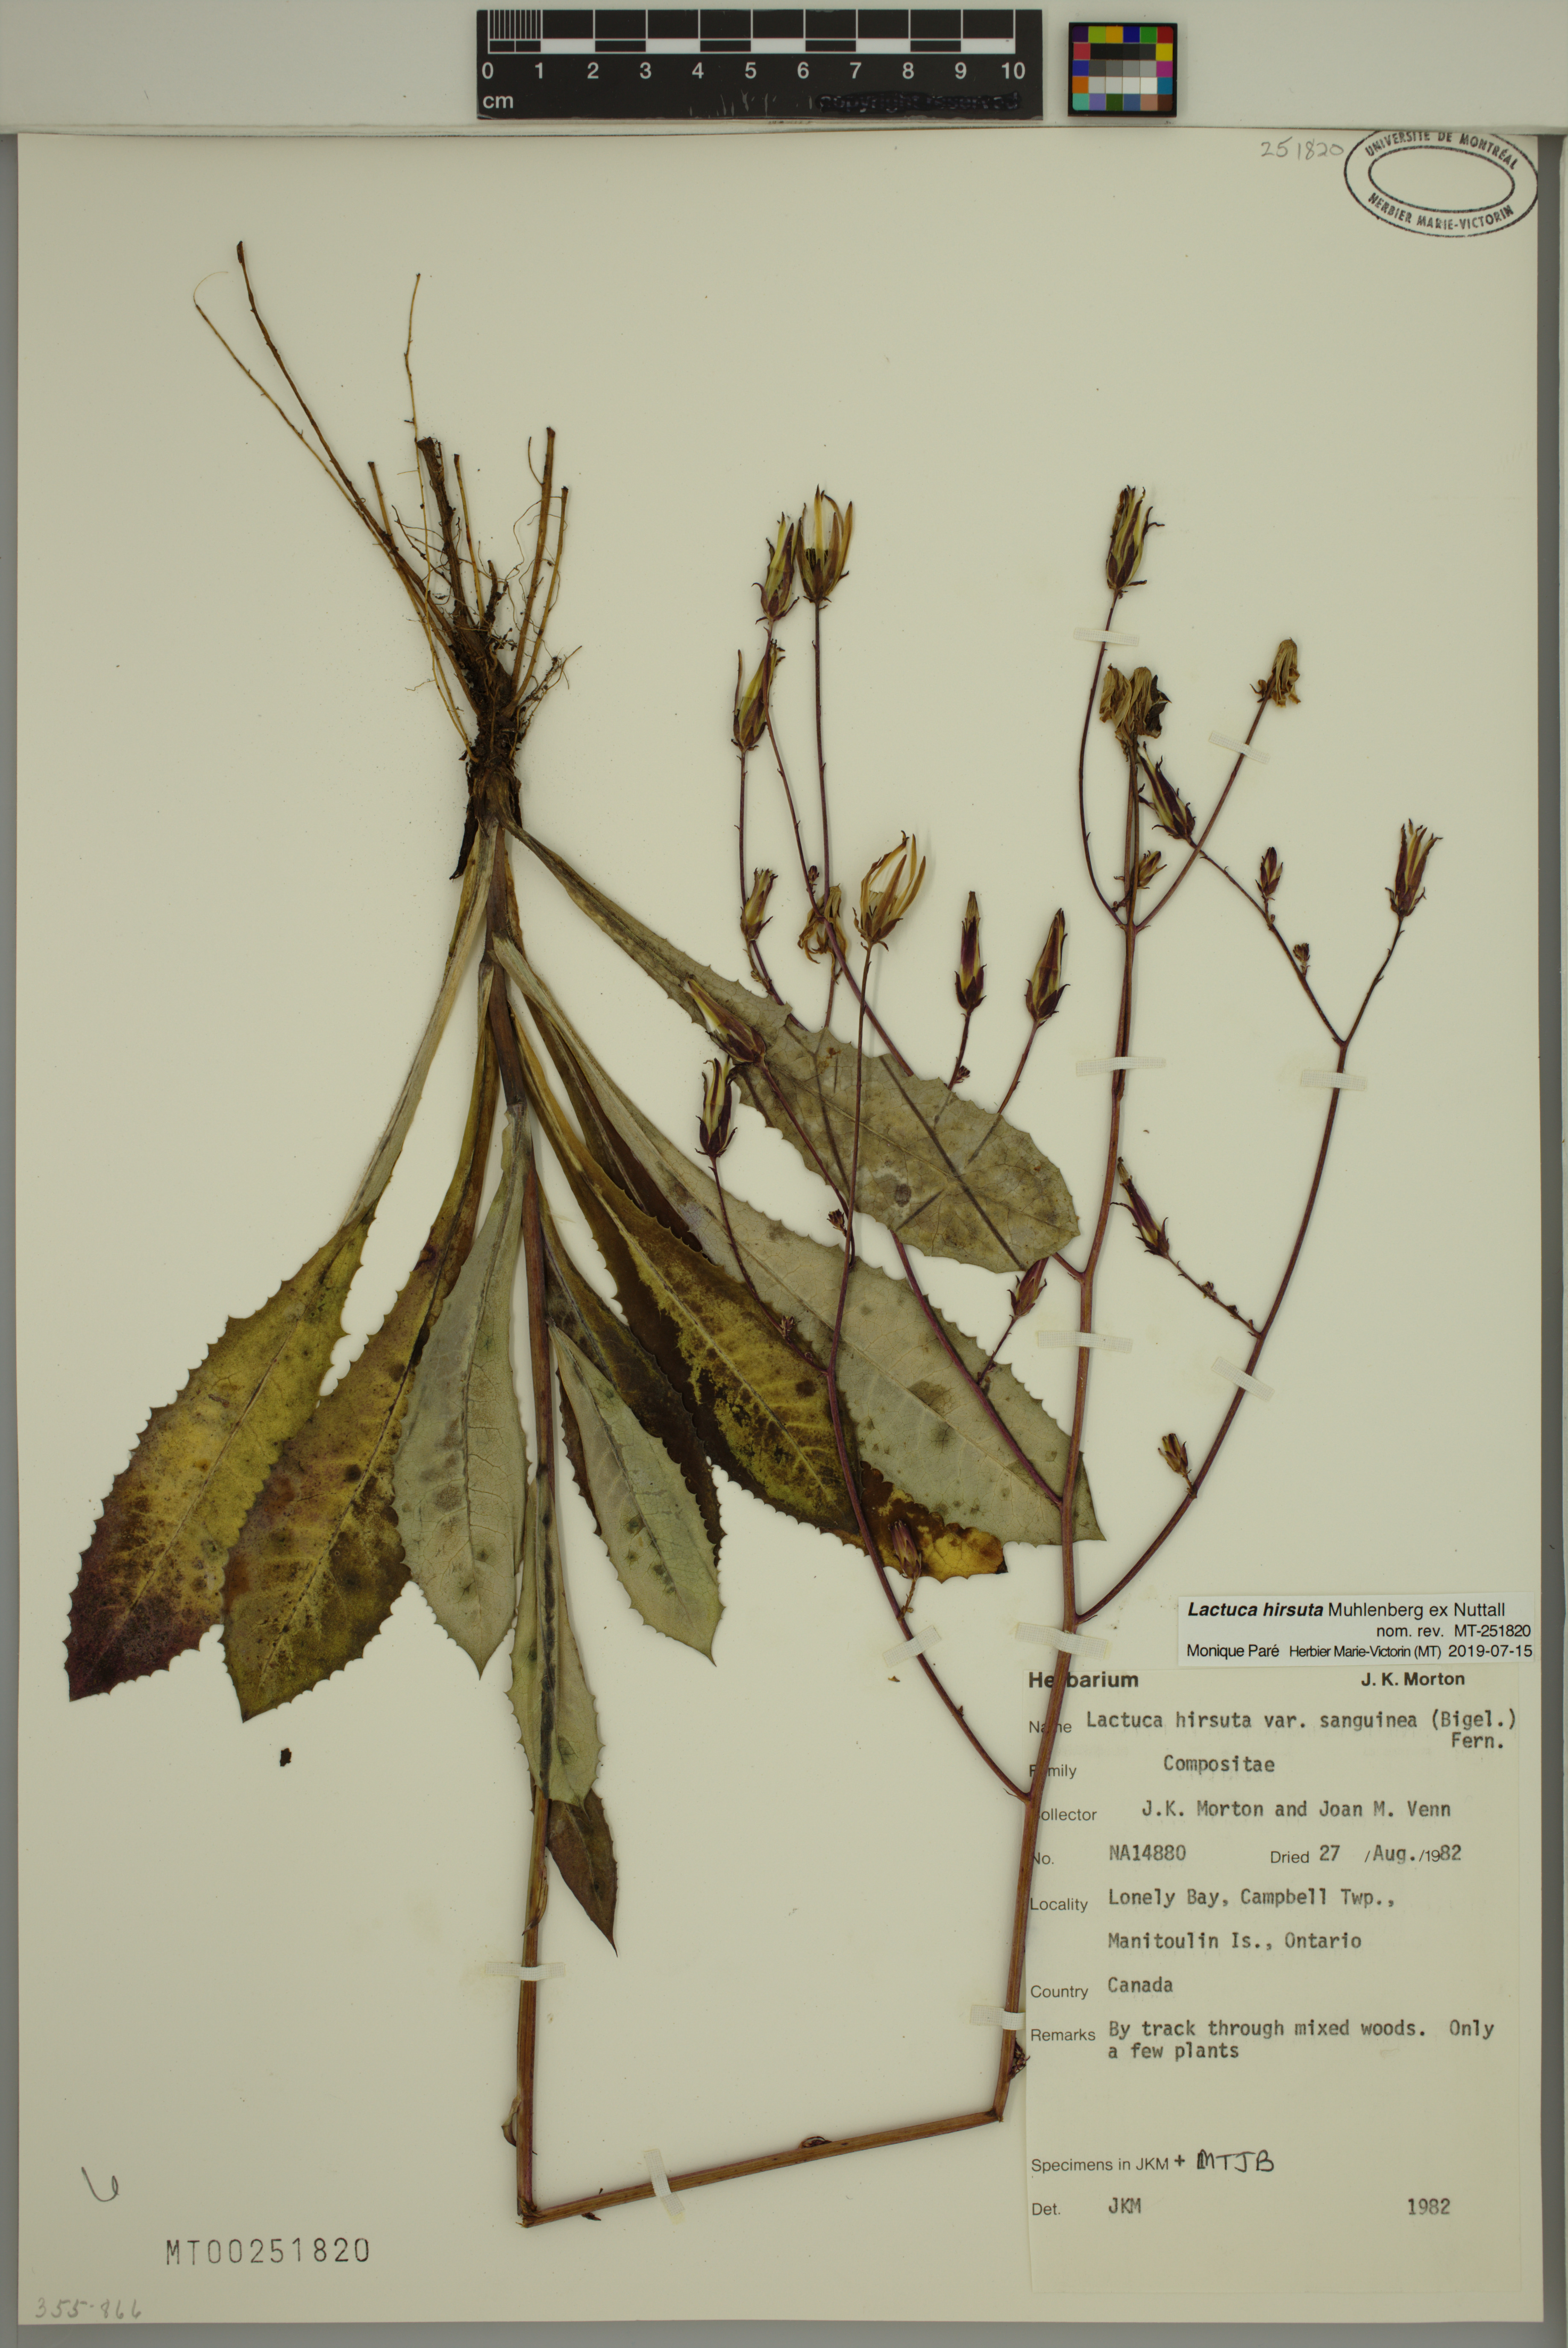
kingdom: Plantae
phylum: Tracheophyta
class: Magnoliopsida
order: Asterales
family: Asteraceae
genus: Lactuca
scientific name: Lactuca hirsuta
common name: Hairy lettuce
